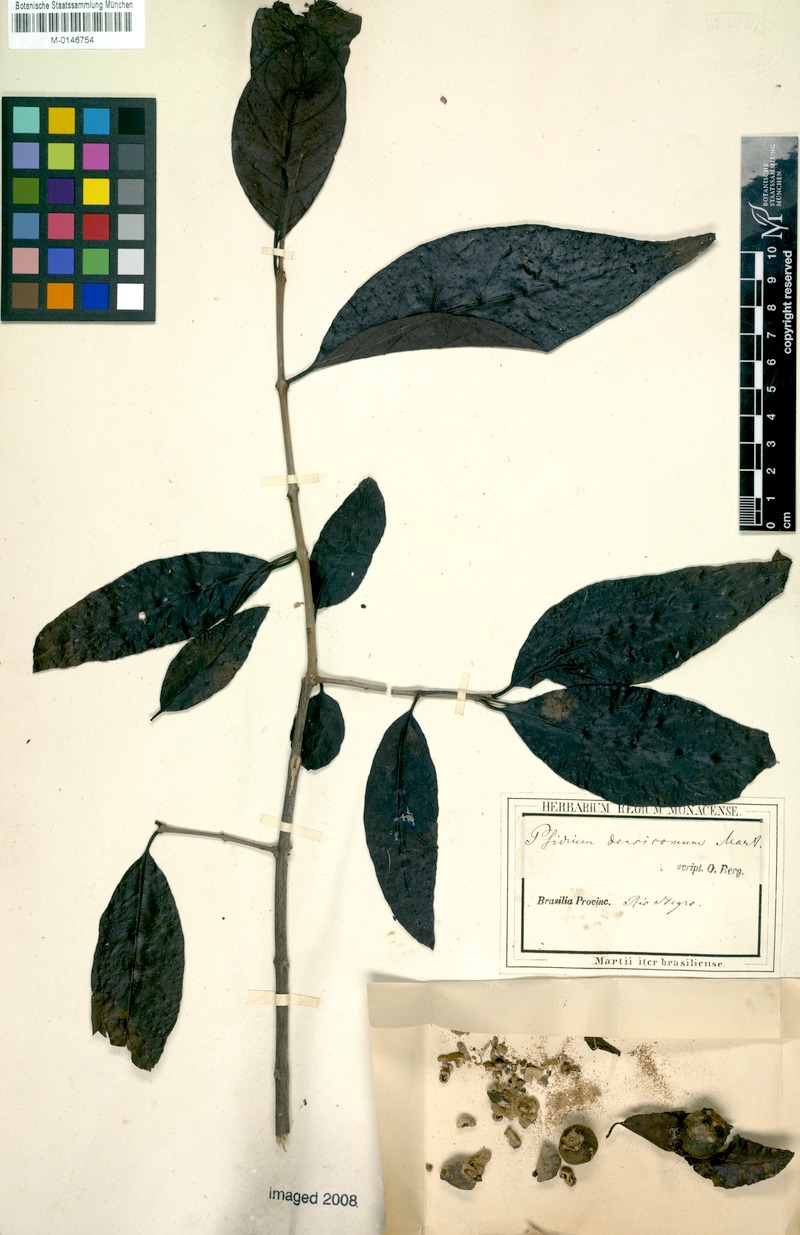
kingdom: Plantae
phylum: Tracheophyta
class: Magnoliopsida
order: Myrtales
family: Myrtaceae
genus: Psidium
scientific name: Psidium densicomum
